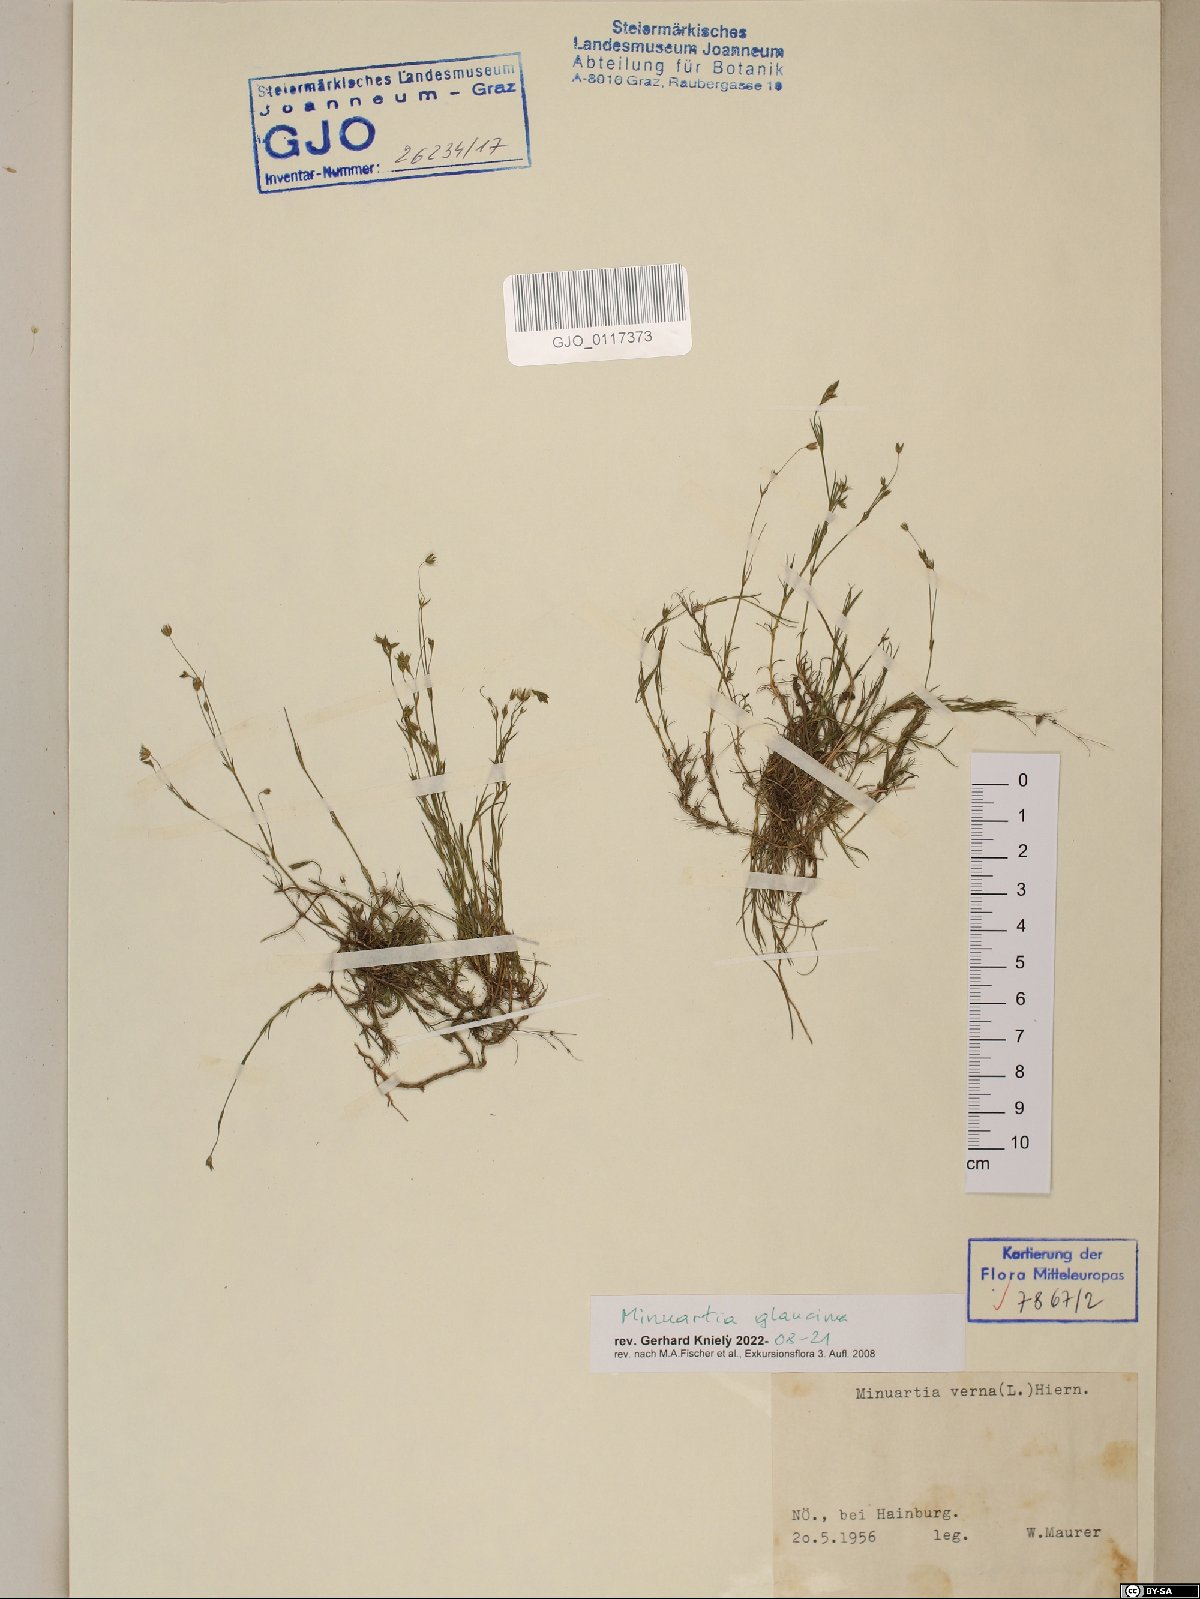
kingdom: Plantae
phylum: Tracheophyta
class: Magnoliopsida
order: Caryophyllales
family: Caryophyllaceae
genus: Sabulina
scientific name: Sabulina glaucina
